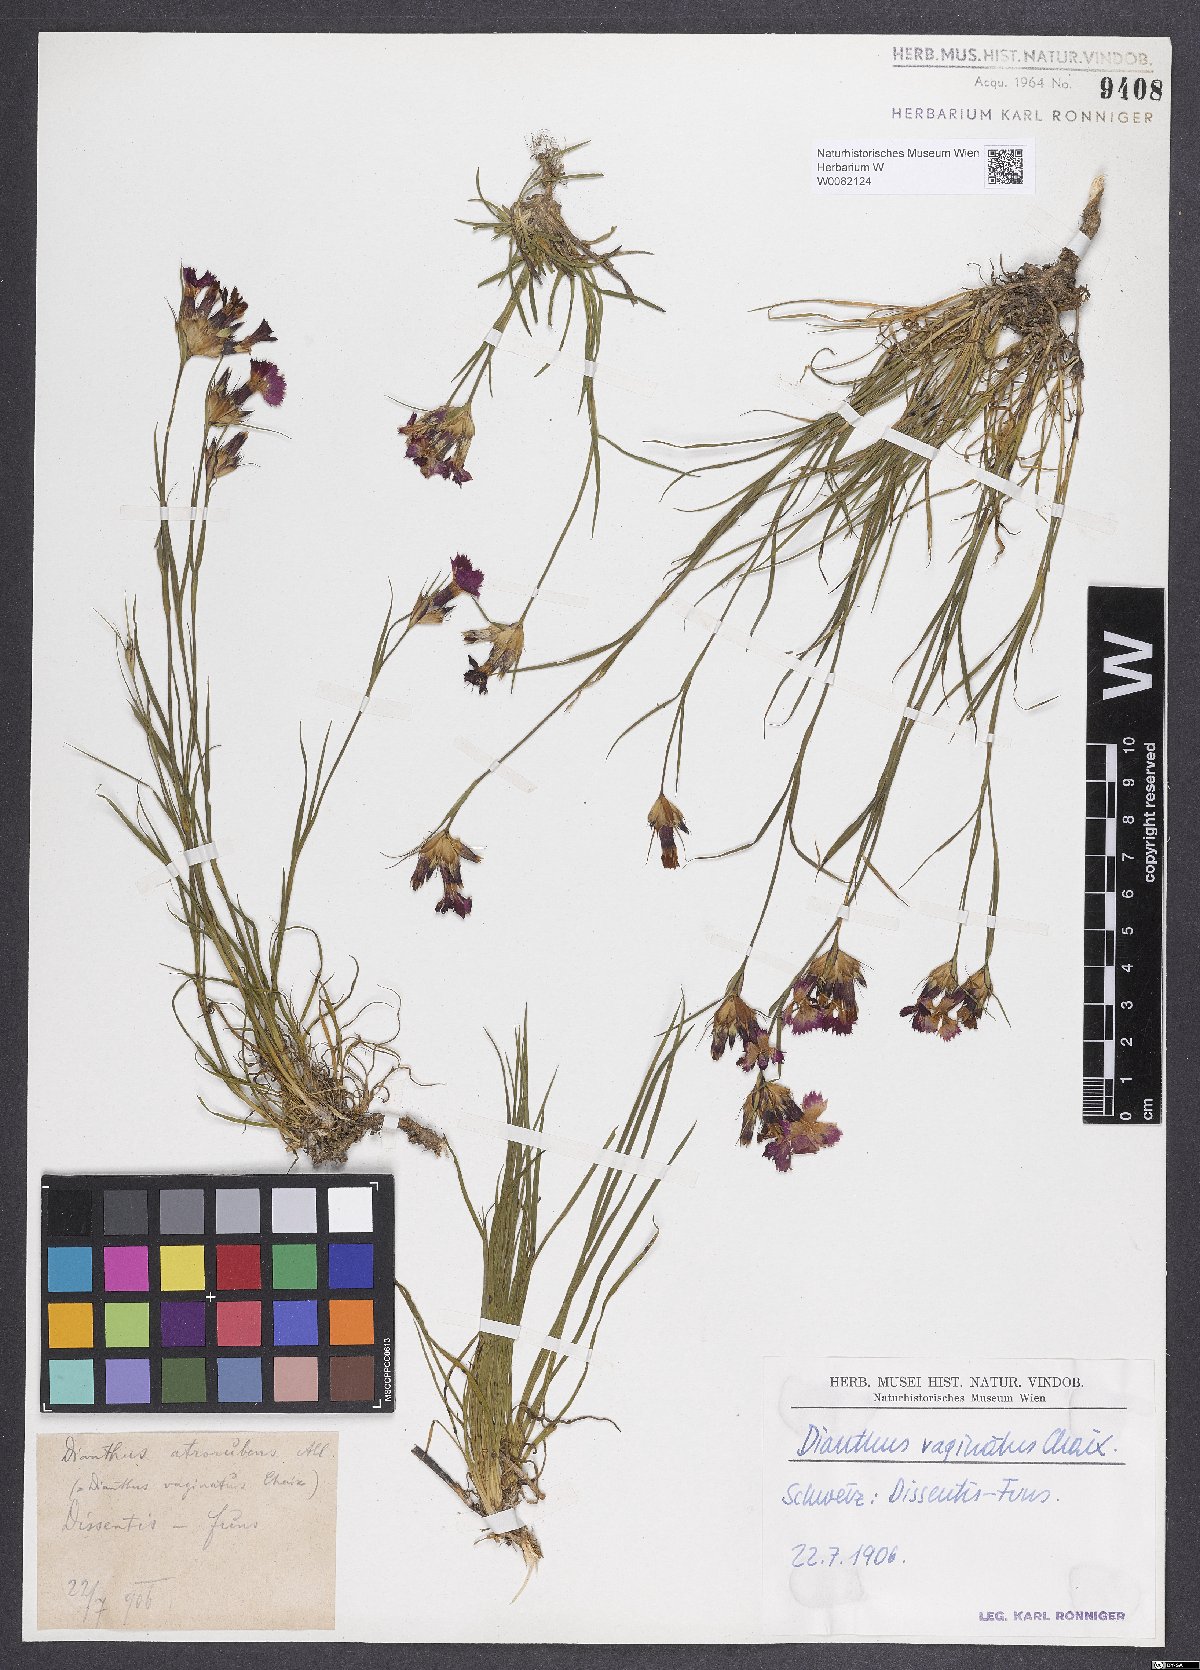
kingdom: Plantae
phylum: Tracheophyta
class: Magnoliopsida
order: Caryophyllales
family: Caryophyllaceae
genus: Dianthus
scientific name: Dianthus carthusianorum
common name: Carthusian pink
